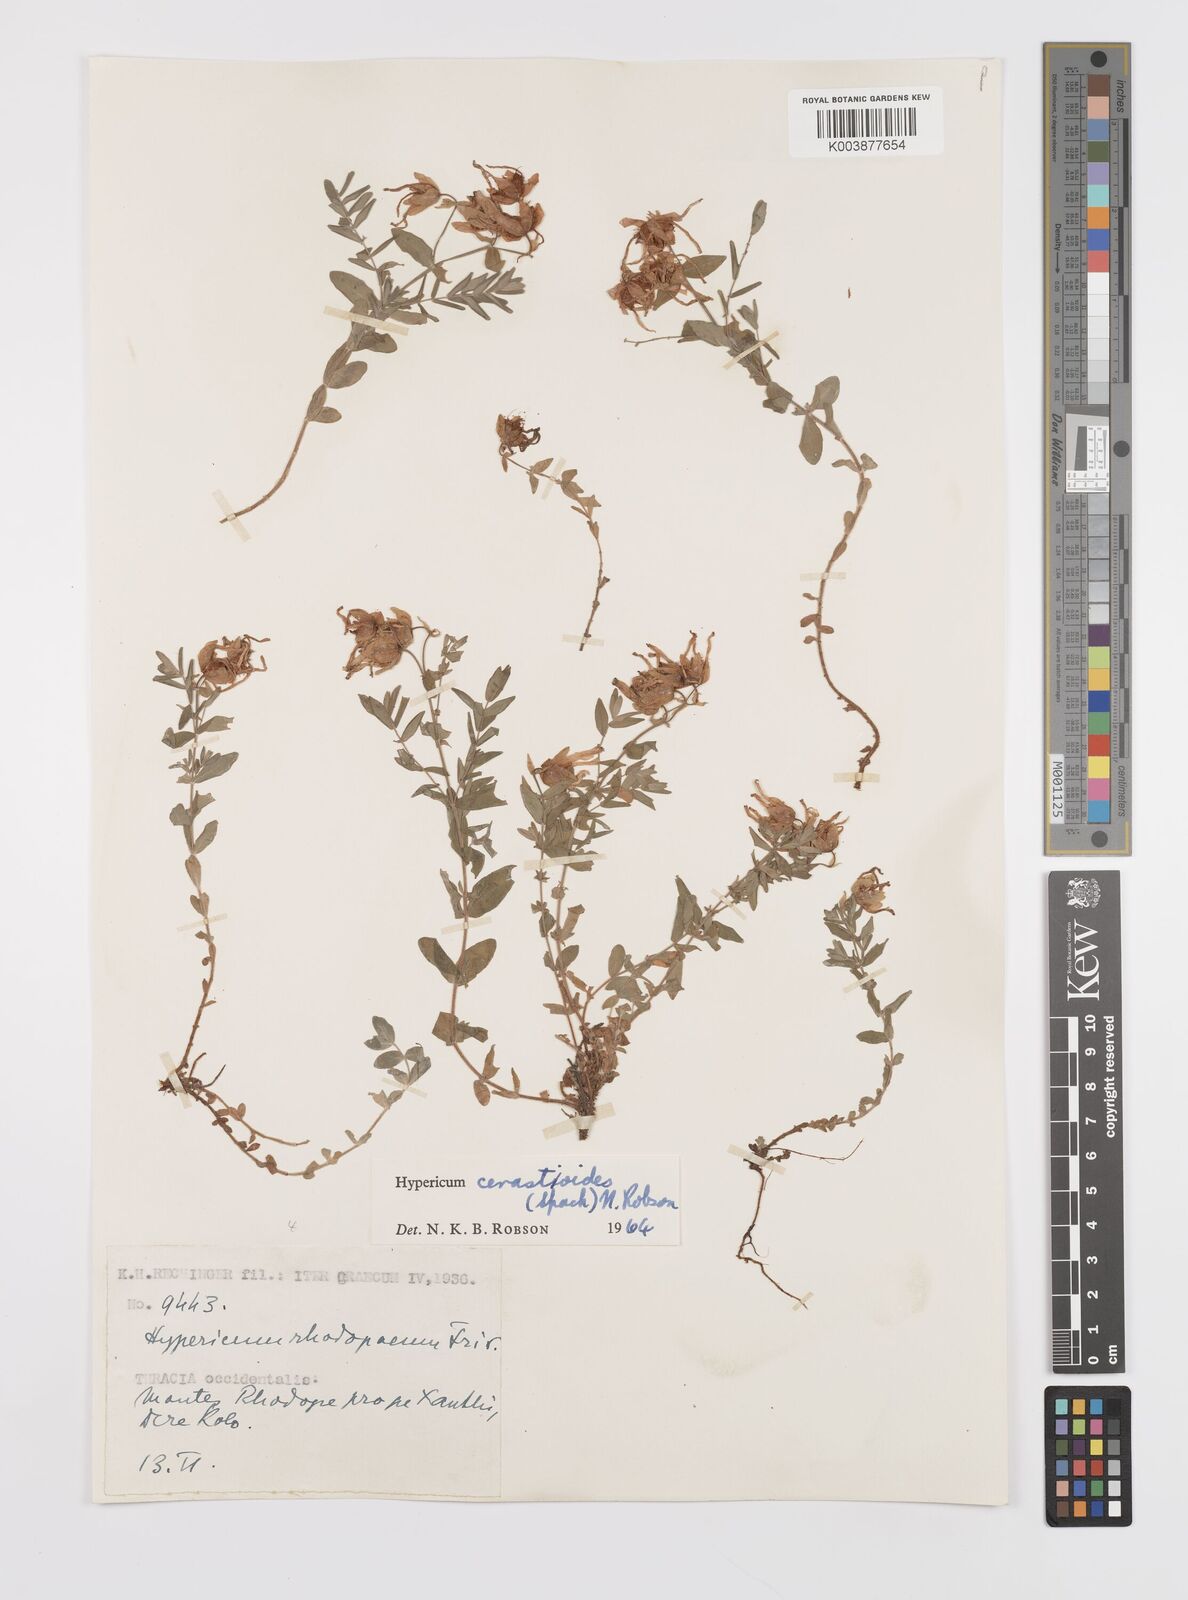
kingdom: Plantae
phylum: Tracheophyta
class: Magnoliopsida
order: Malpighiales
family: Hypericaceae
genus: Hypericum
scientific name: Hypericum cerastoides
